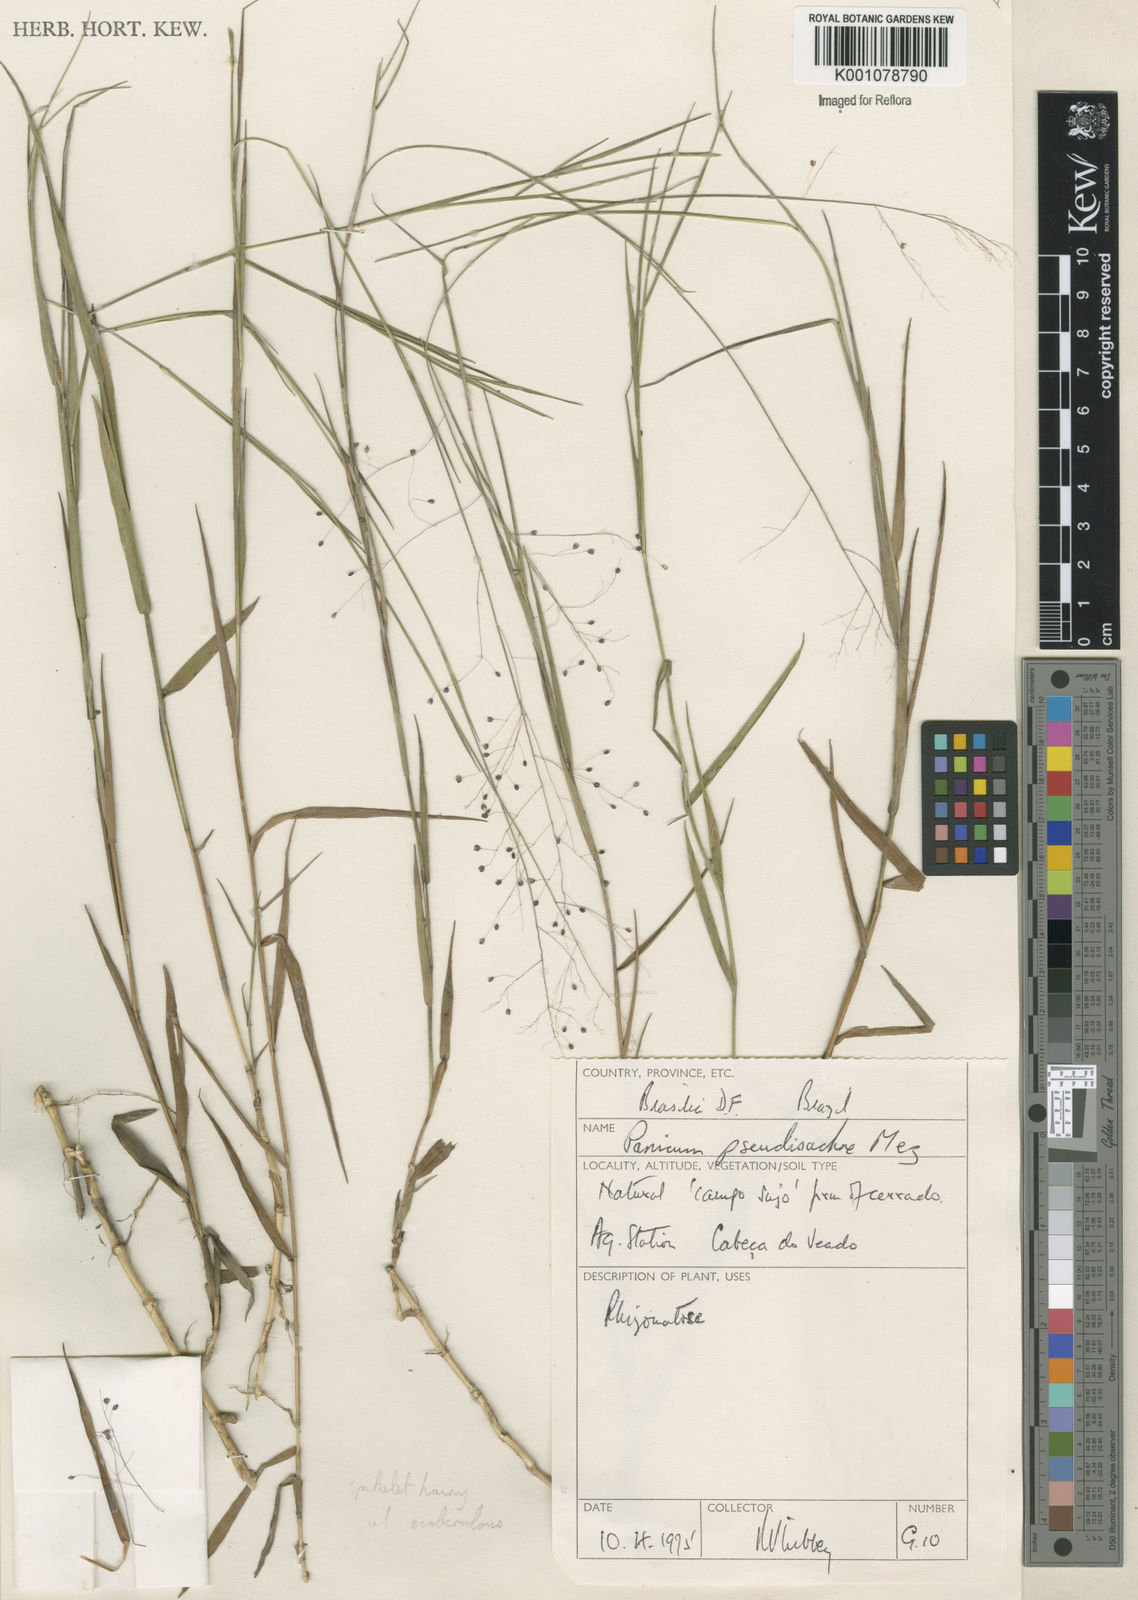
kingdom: Plantae
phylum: Tracheophyta
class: Liliopsida
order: Poales
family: Poaceae
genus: Trichanthecium
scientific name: Trichanthecium pseudisachne
